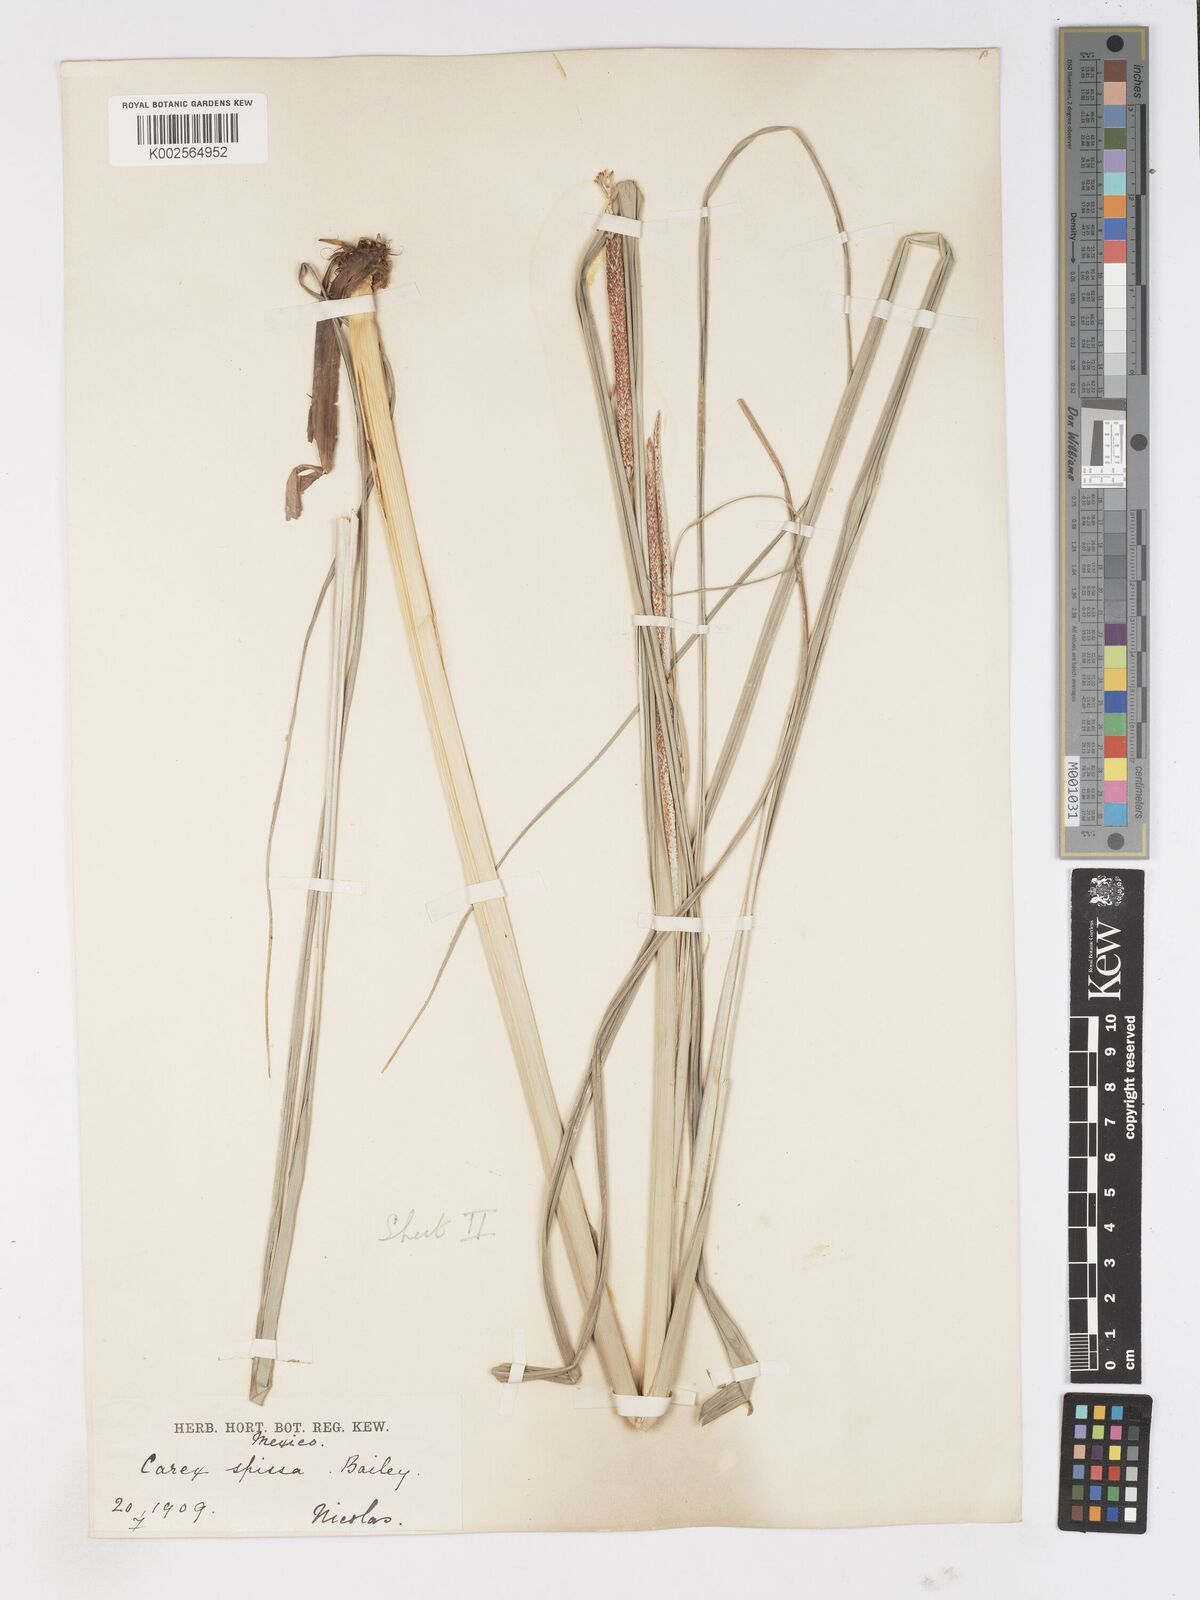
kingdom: Plantae
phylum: Tracheophyta
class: Liliopsida
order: Poales
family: Cyperaceae
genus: Carex
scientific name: Carex spissa
